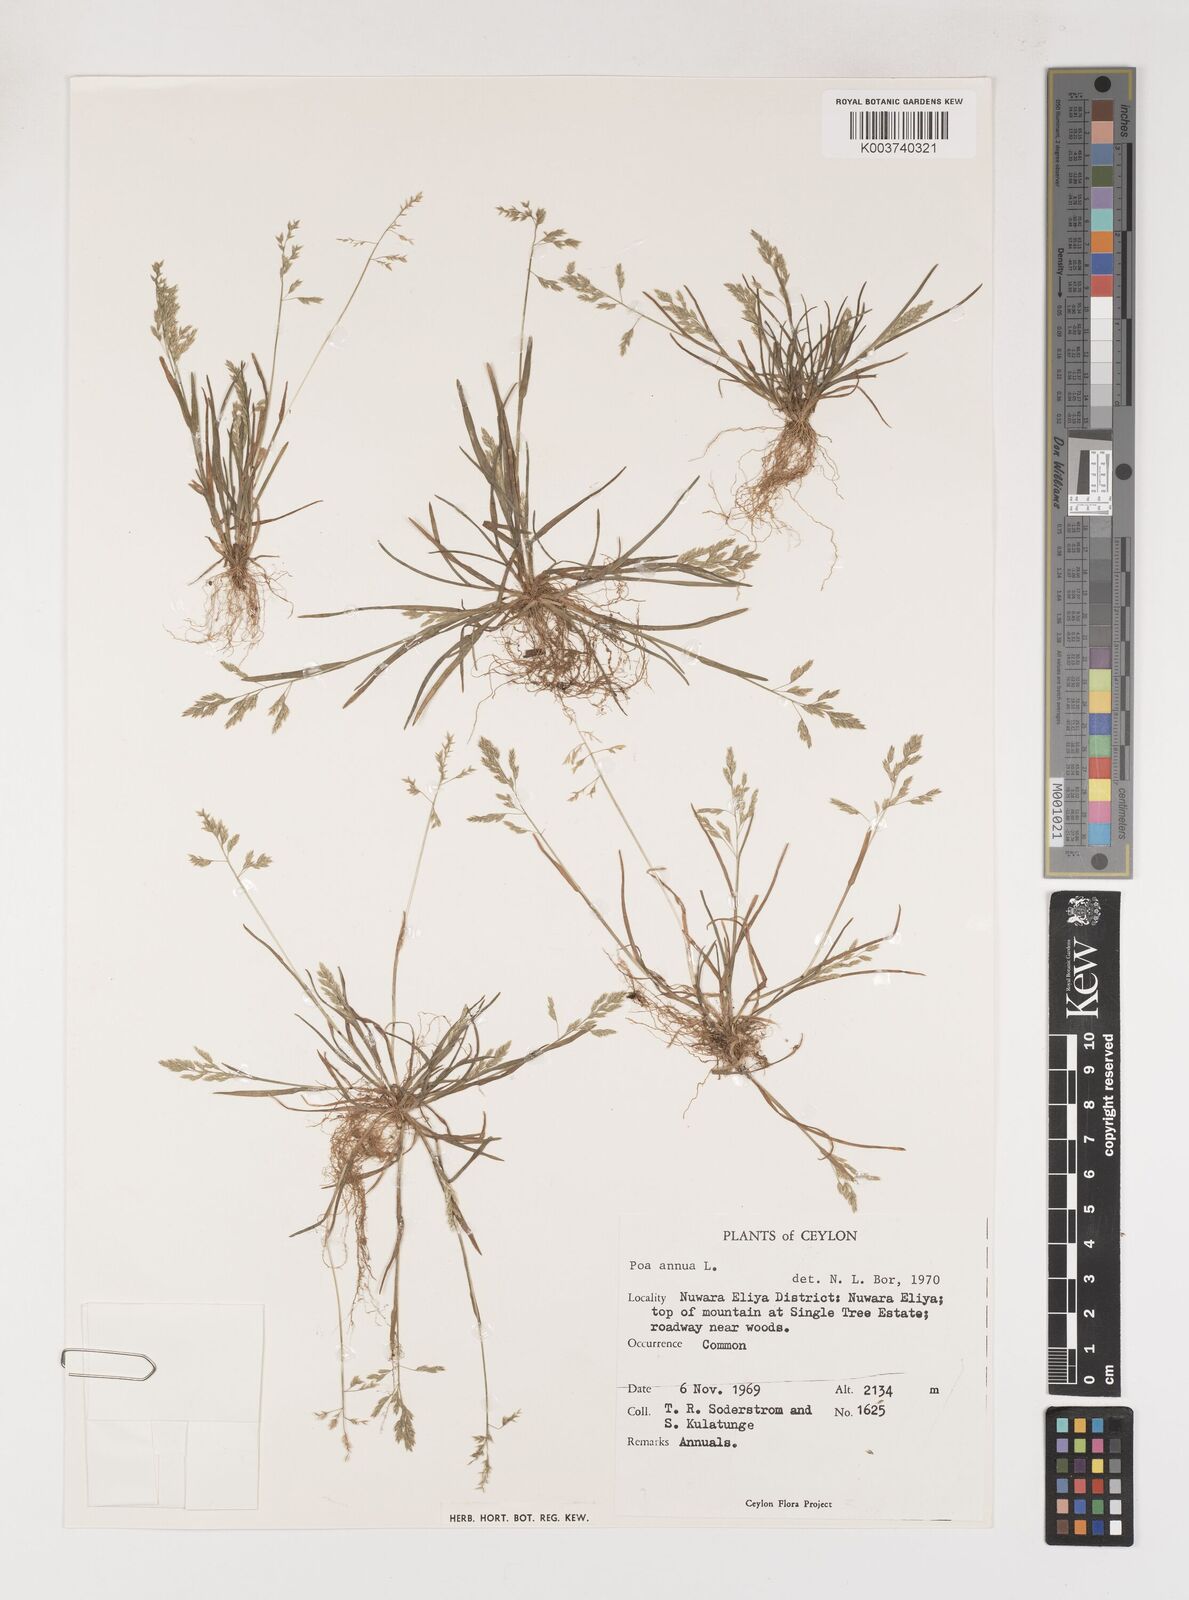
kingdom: Plantae
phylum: Tracheophyta
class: Liliopsida
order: Poales
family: Poaceae
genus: Poa
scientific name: Poa annua
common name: Annual bluegrass
